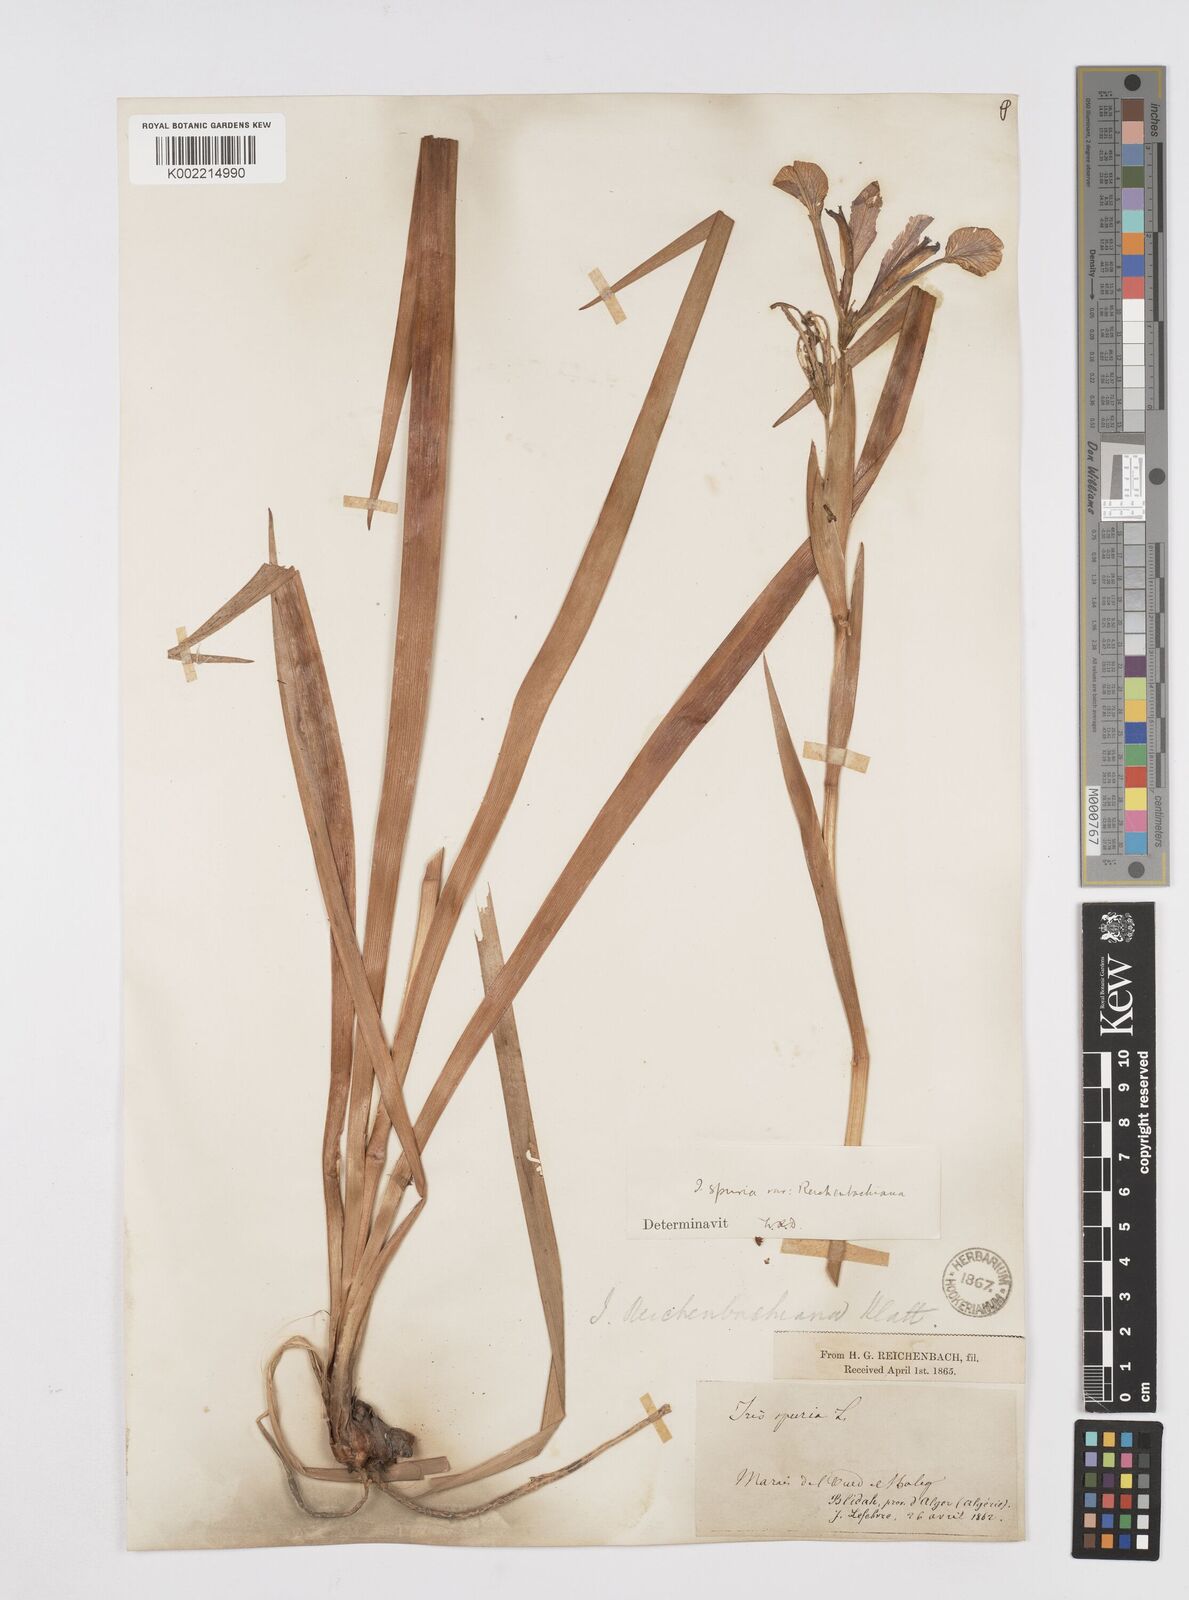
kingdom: Plantae
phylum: Tracheophyta
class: Liliopsida
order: Asparagales
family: Iridaceae
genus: Iris
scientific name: Iris spuria
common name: Blue iris
